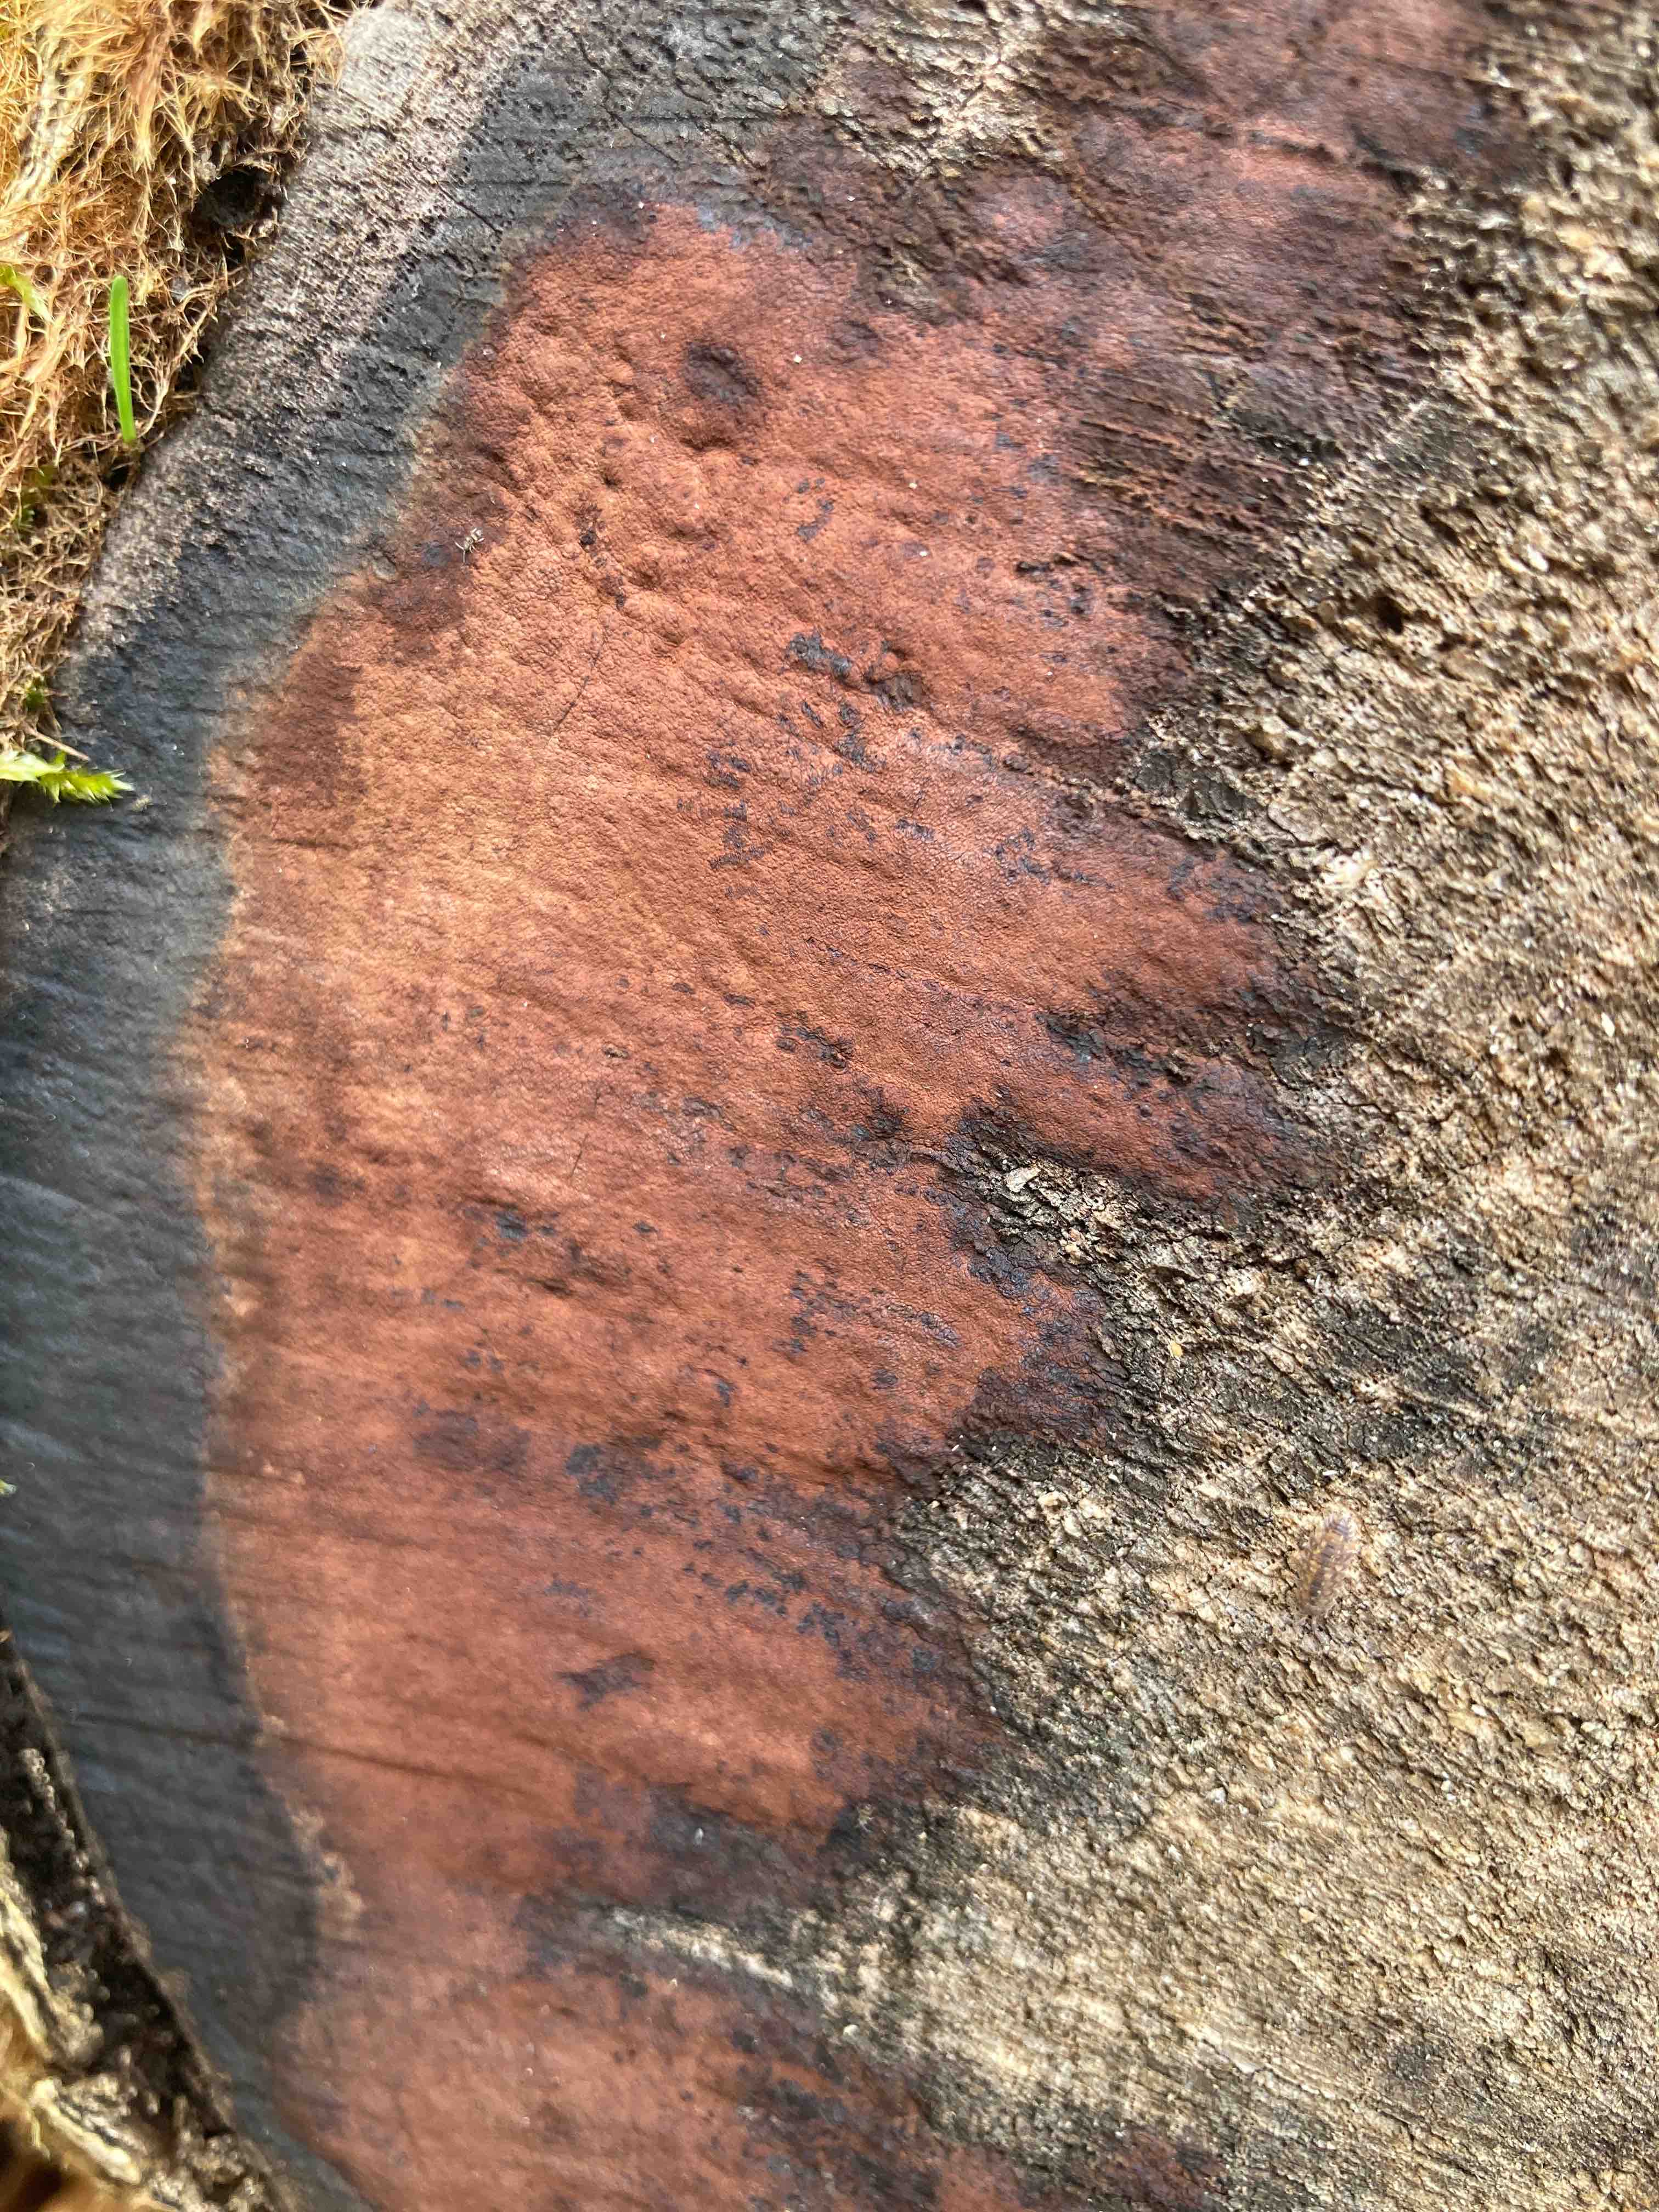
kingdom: Fungi
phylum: Ascomycota
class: Sordariomycetes
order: Xylariales
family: Hypoxylaceae
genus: Hypoxylon
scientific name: Hypoxylon macrocarpum
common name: skorpe-kulbær
